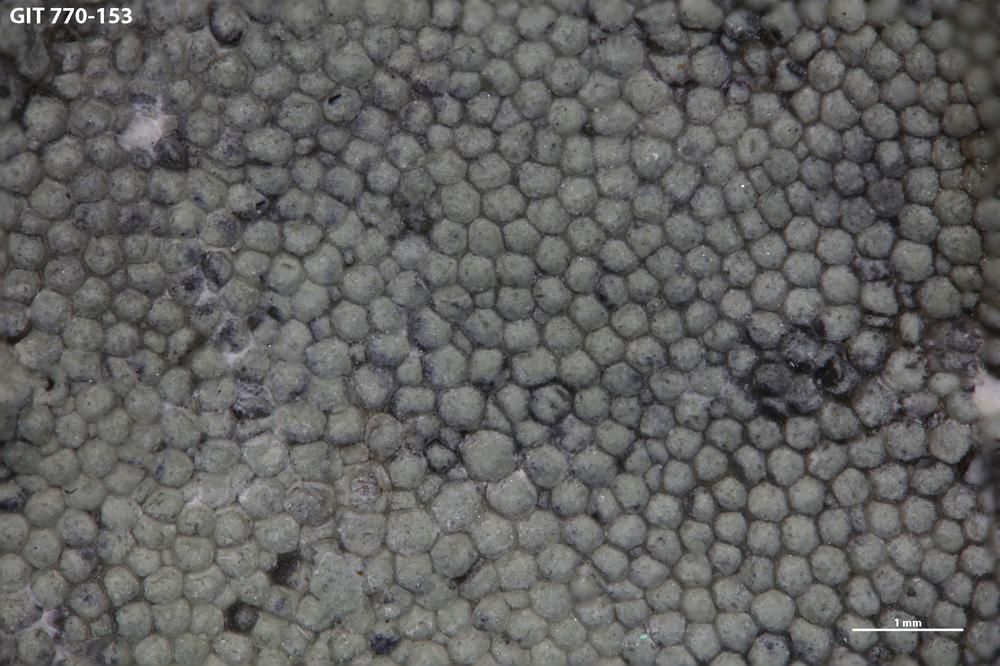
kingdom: Animalia
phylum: Bryozoa
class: Stenolaemata
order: Trepostomatida
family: Monticuliporidae
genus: Mesotrypa
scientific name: Mesotrypa expressa
